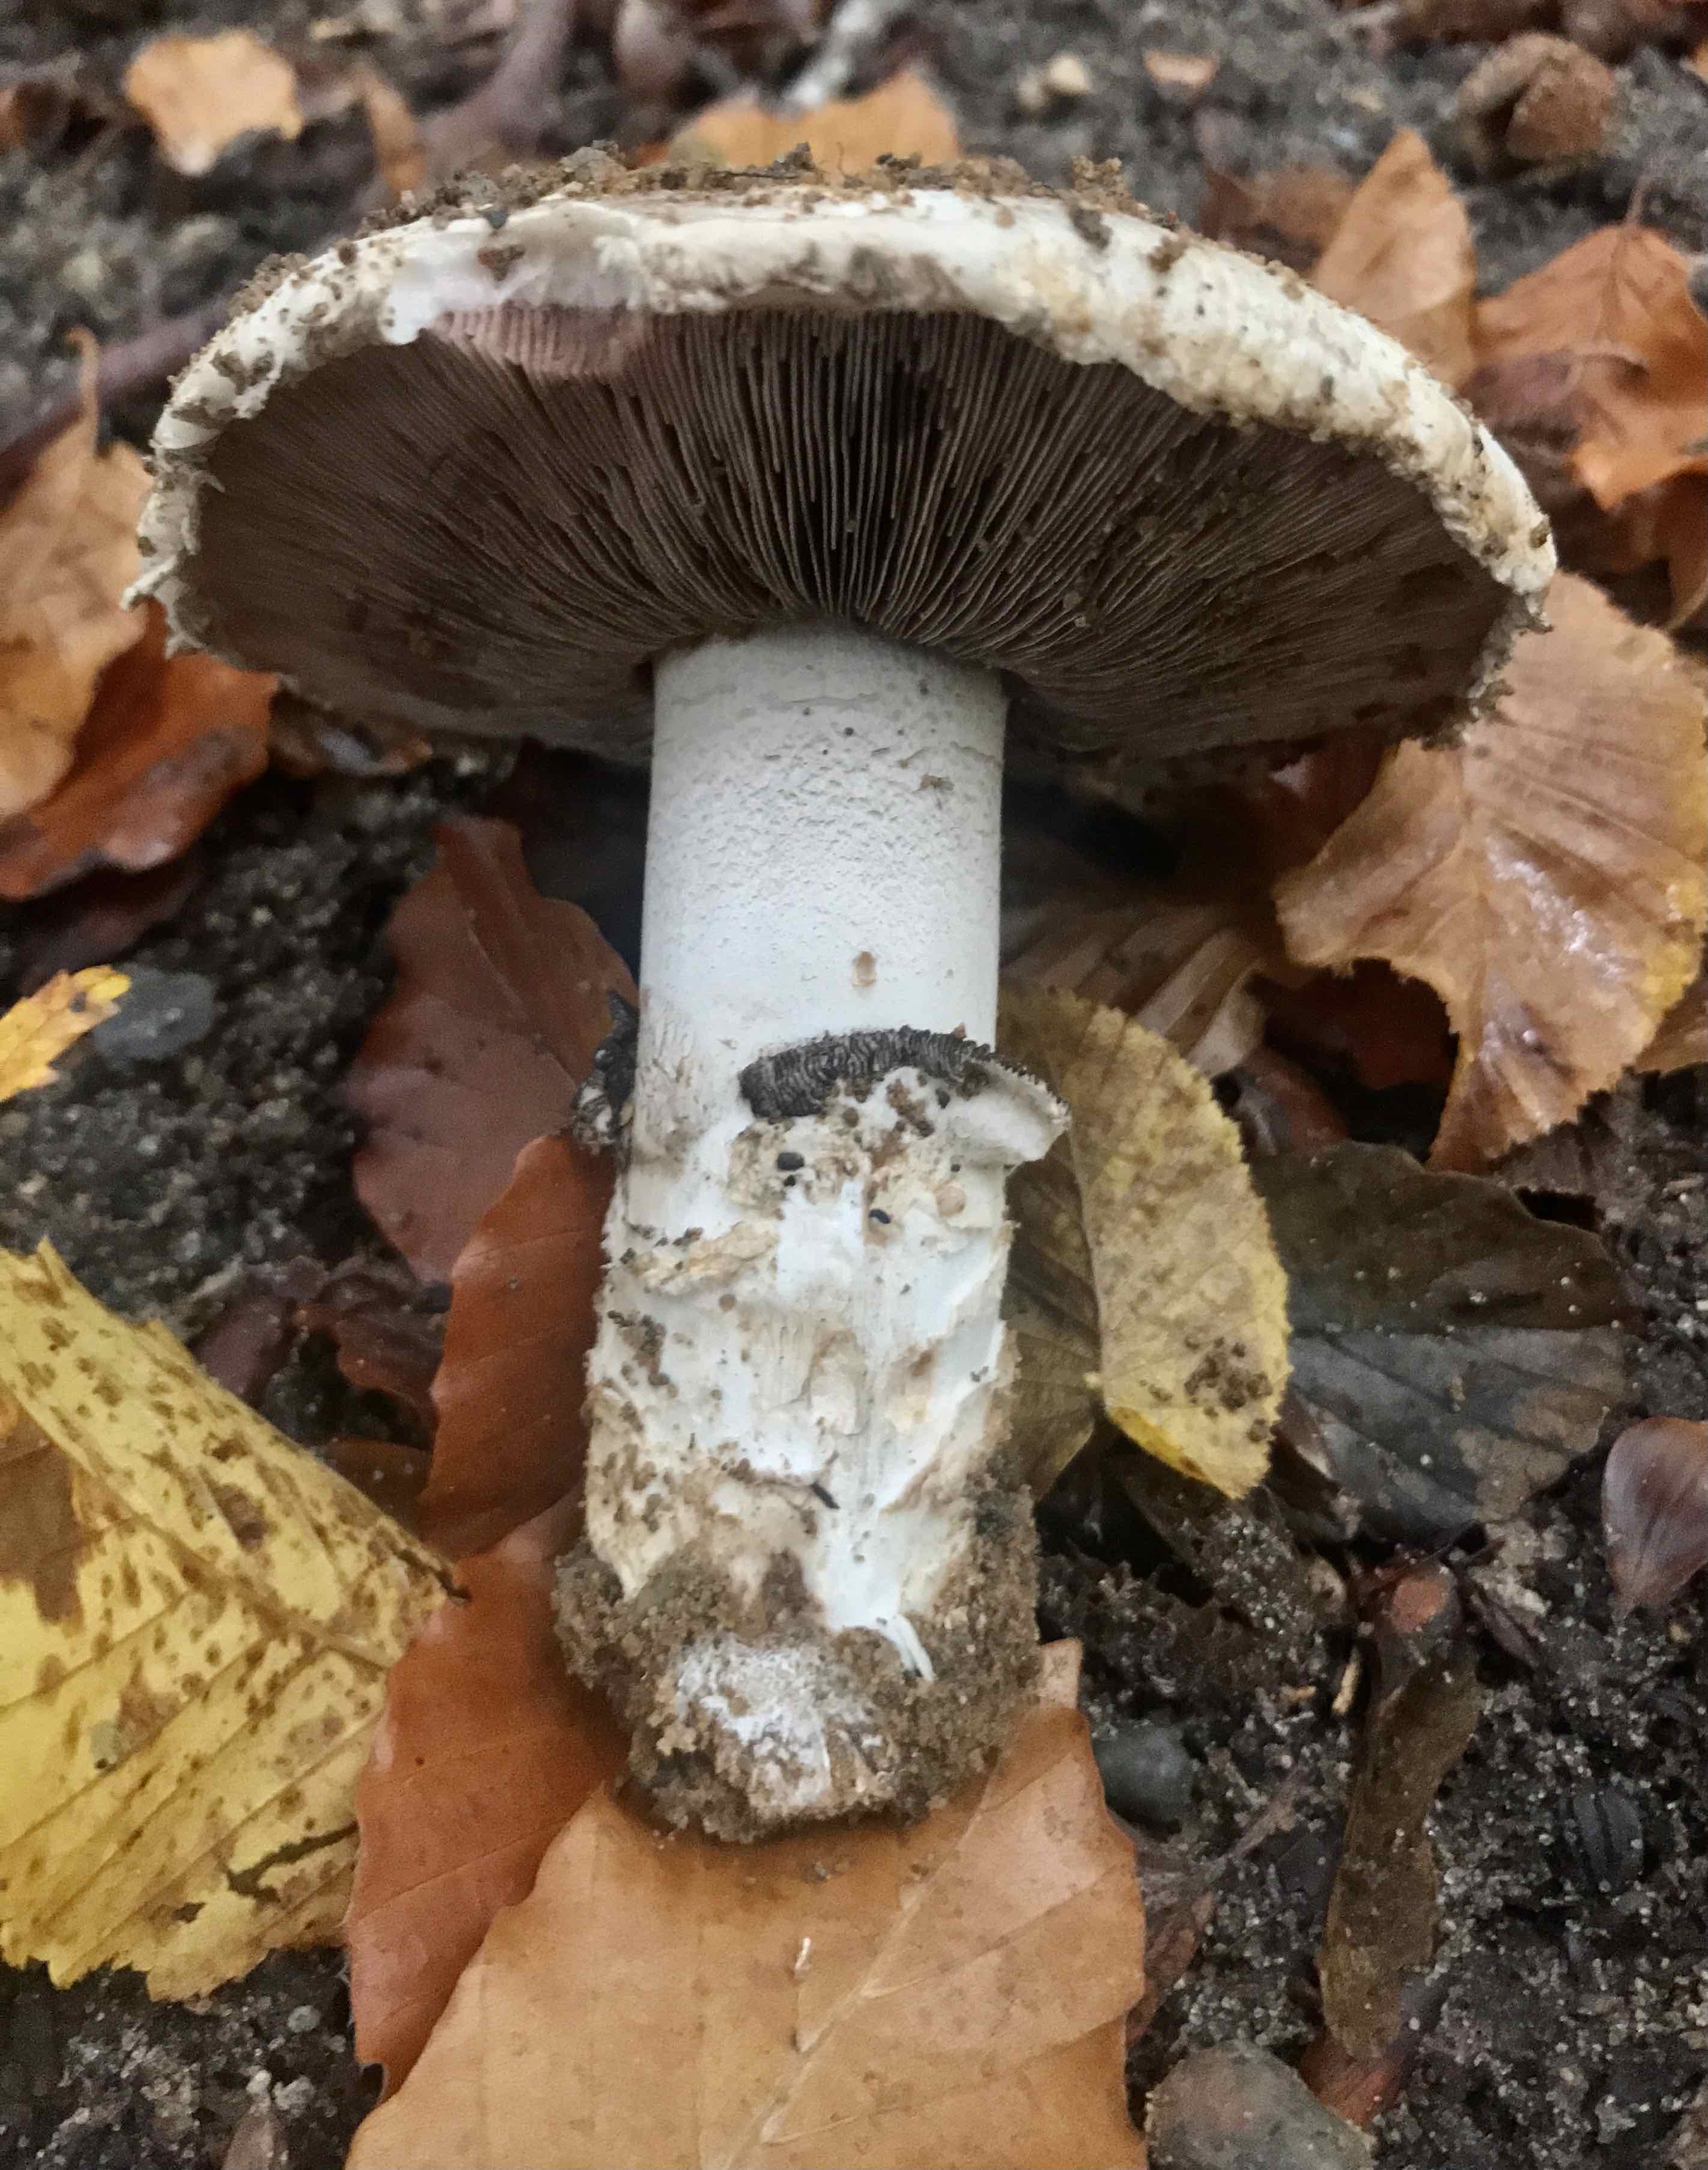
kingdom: Fungi
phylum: Basidiomycota
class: Agaricomycetes
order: Agaricales
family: Agaricaceae
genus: Agaricus
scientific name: Agaricus bitorquis
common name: vej-champignon
